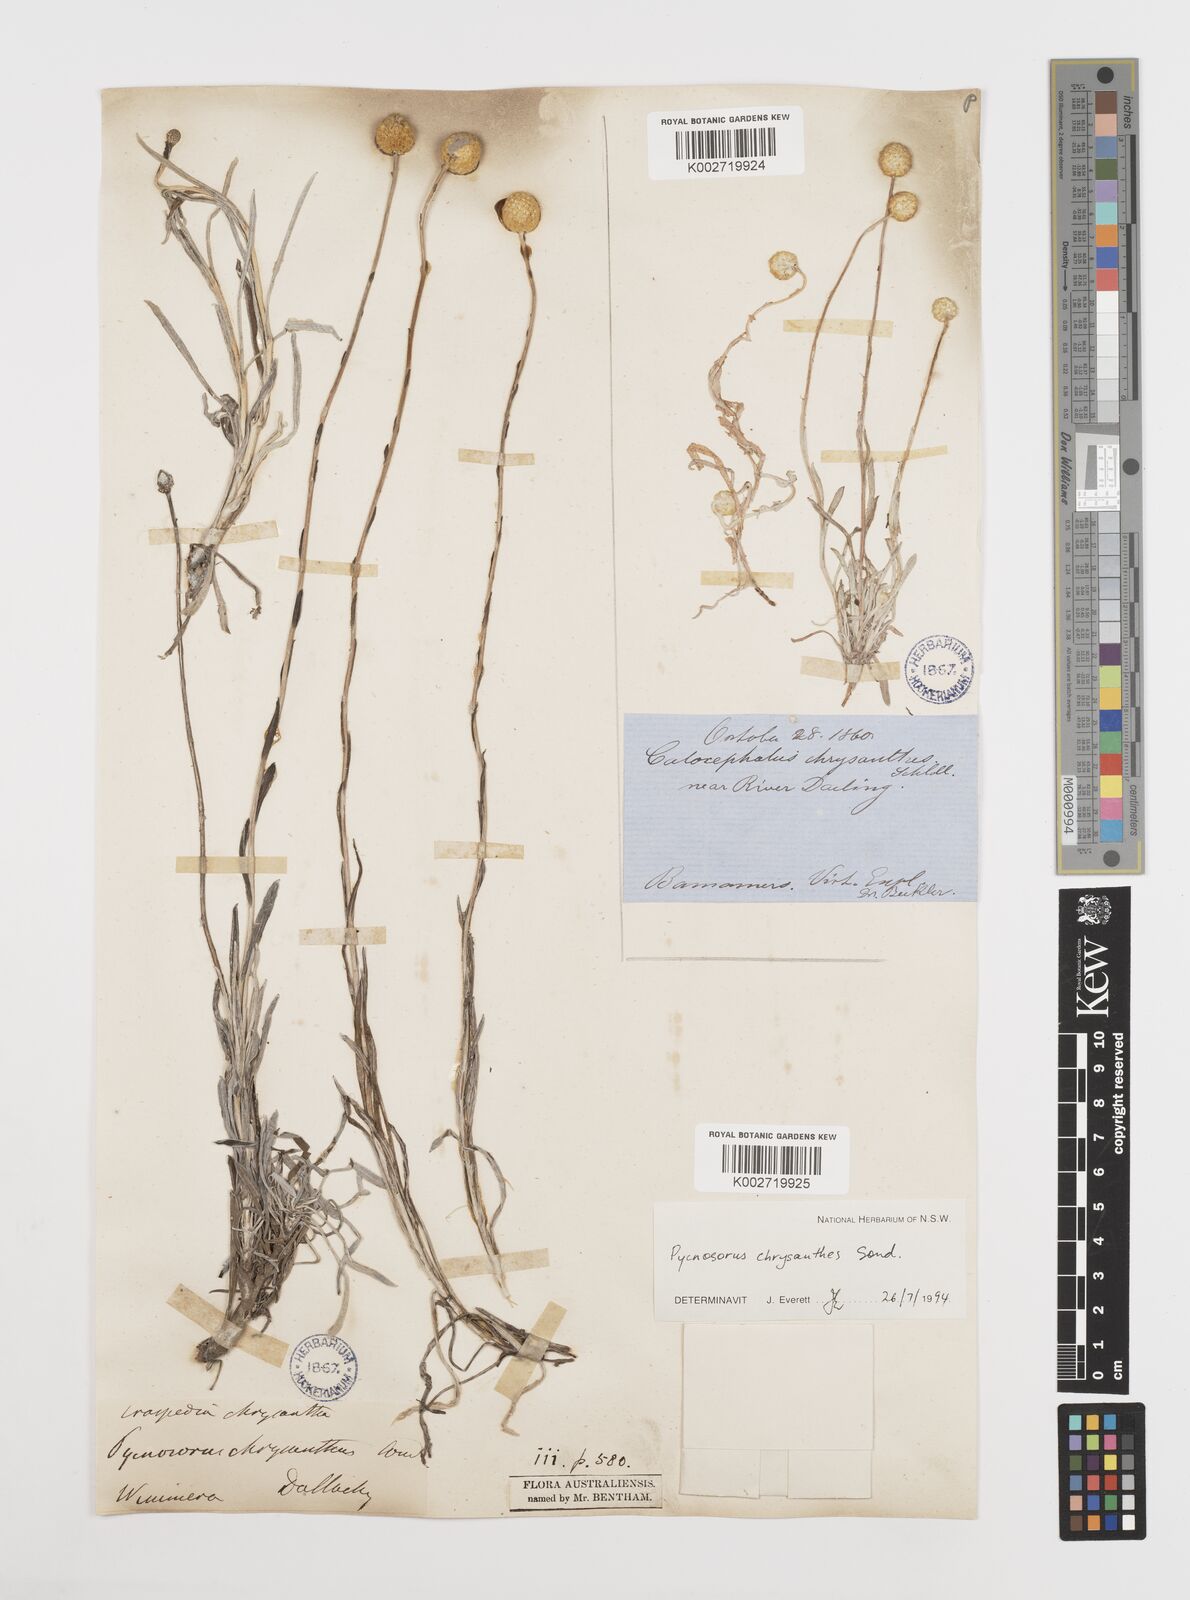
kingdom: Plantae
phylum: Tracheophyta
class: Magnoliopsida
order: Asterales
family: Asteraceae
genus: Pycnosorus
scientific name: Pycnosorus chrysanthus
